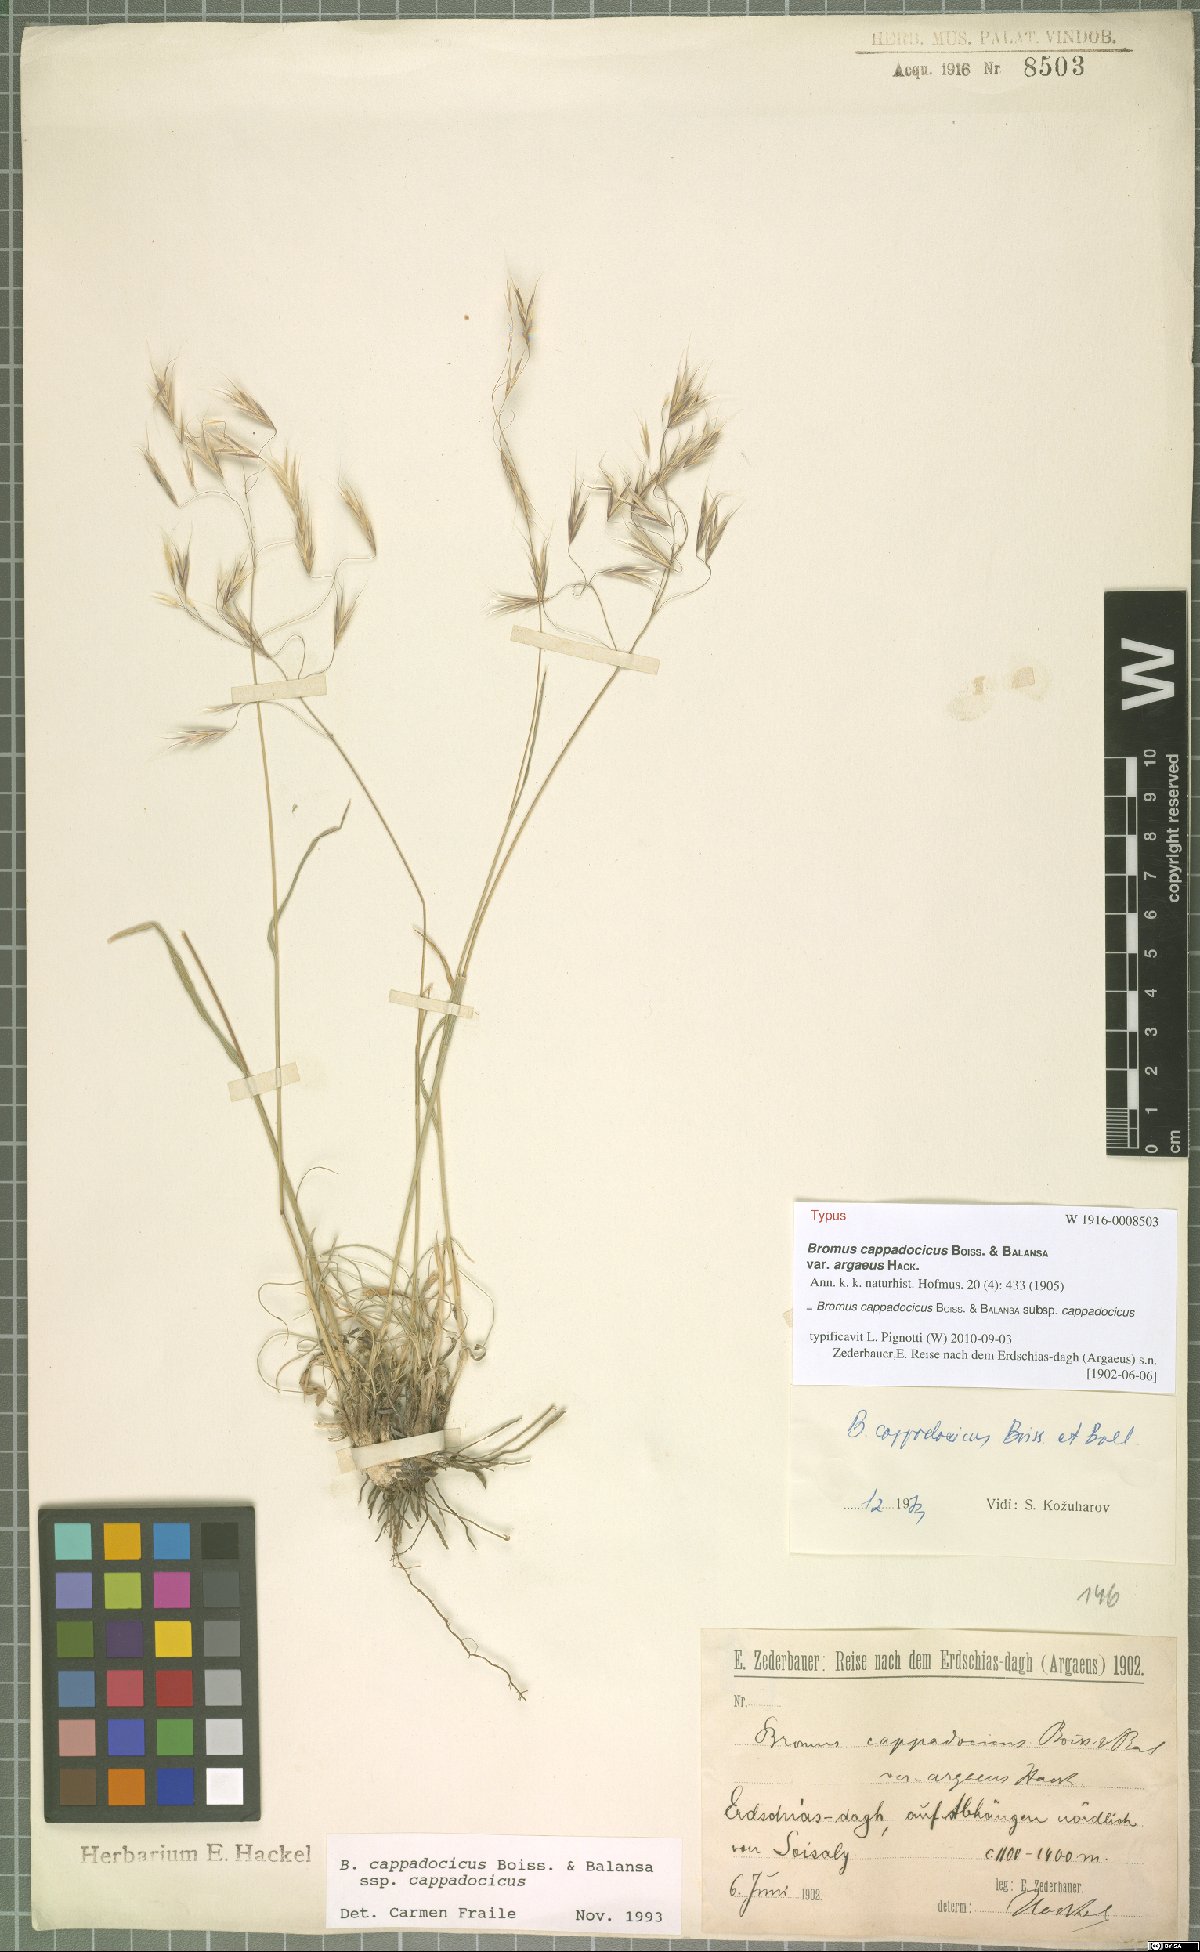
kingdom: Plantae
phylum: Tracheophyta
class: Liliopsida
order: Poales
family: Poaceae
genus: Bromus
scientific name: Bromus sclerophyllus
